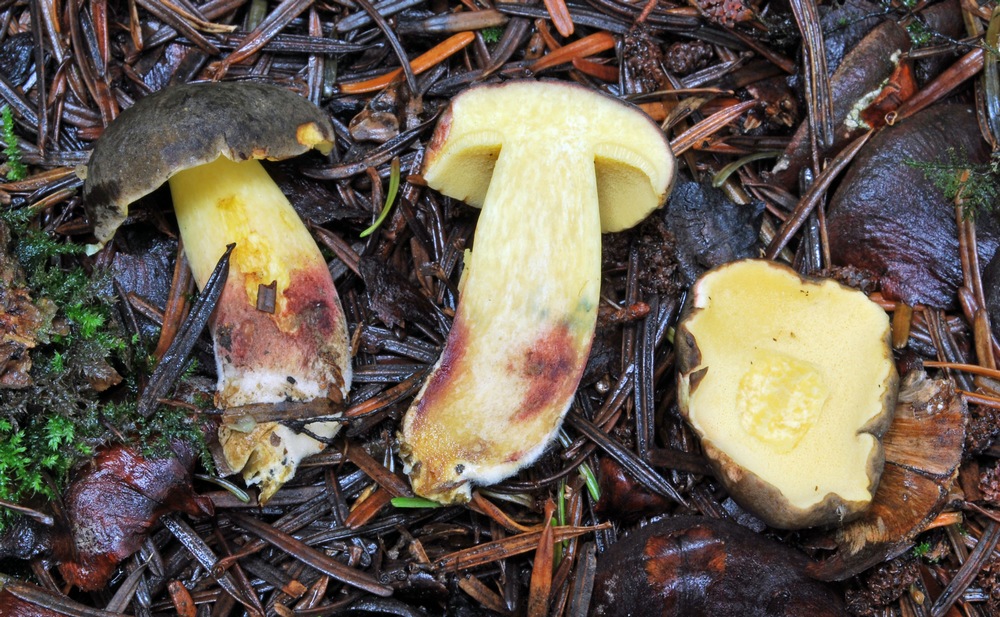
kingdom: Fungi
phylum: Basidiomycota
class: Agaricomycetes
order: Boletales
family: Boletaceae
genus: Xerocomellus
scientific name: Xerocomellus pruinatus
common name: dugget rørhat
